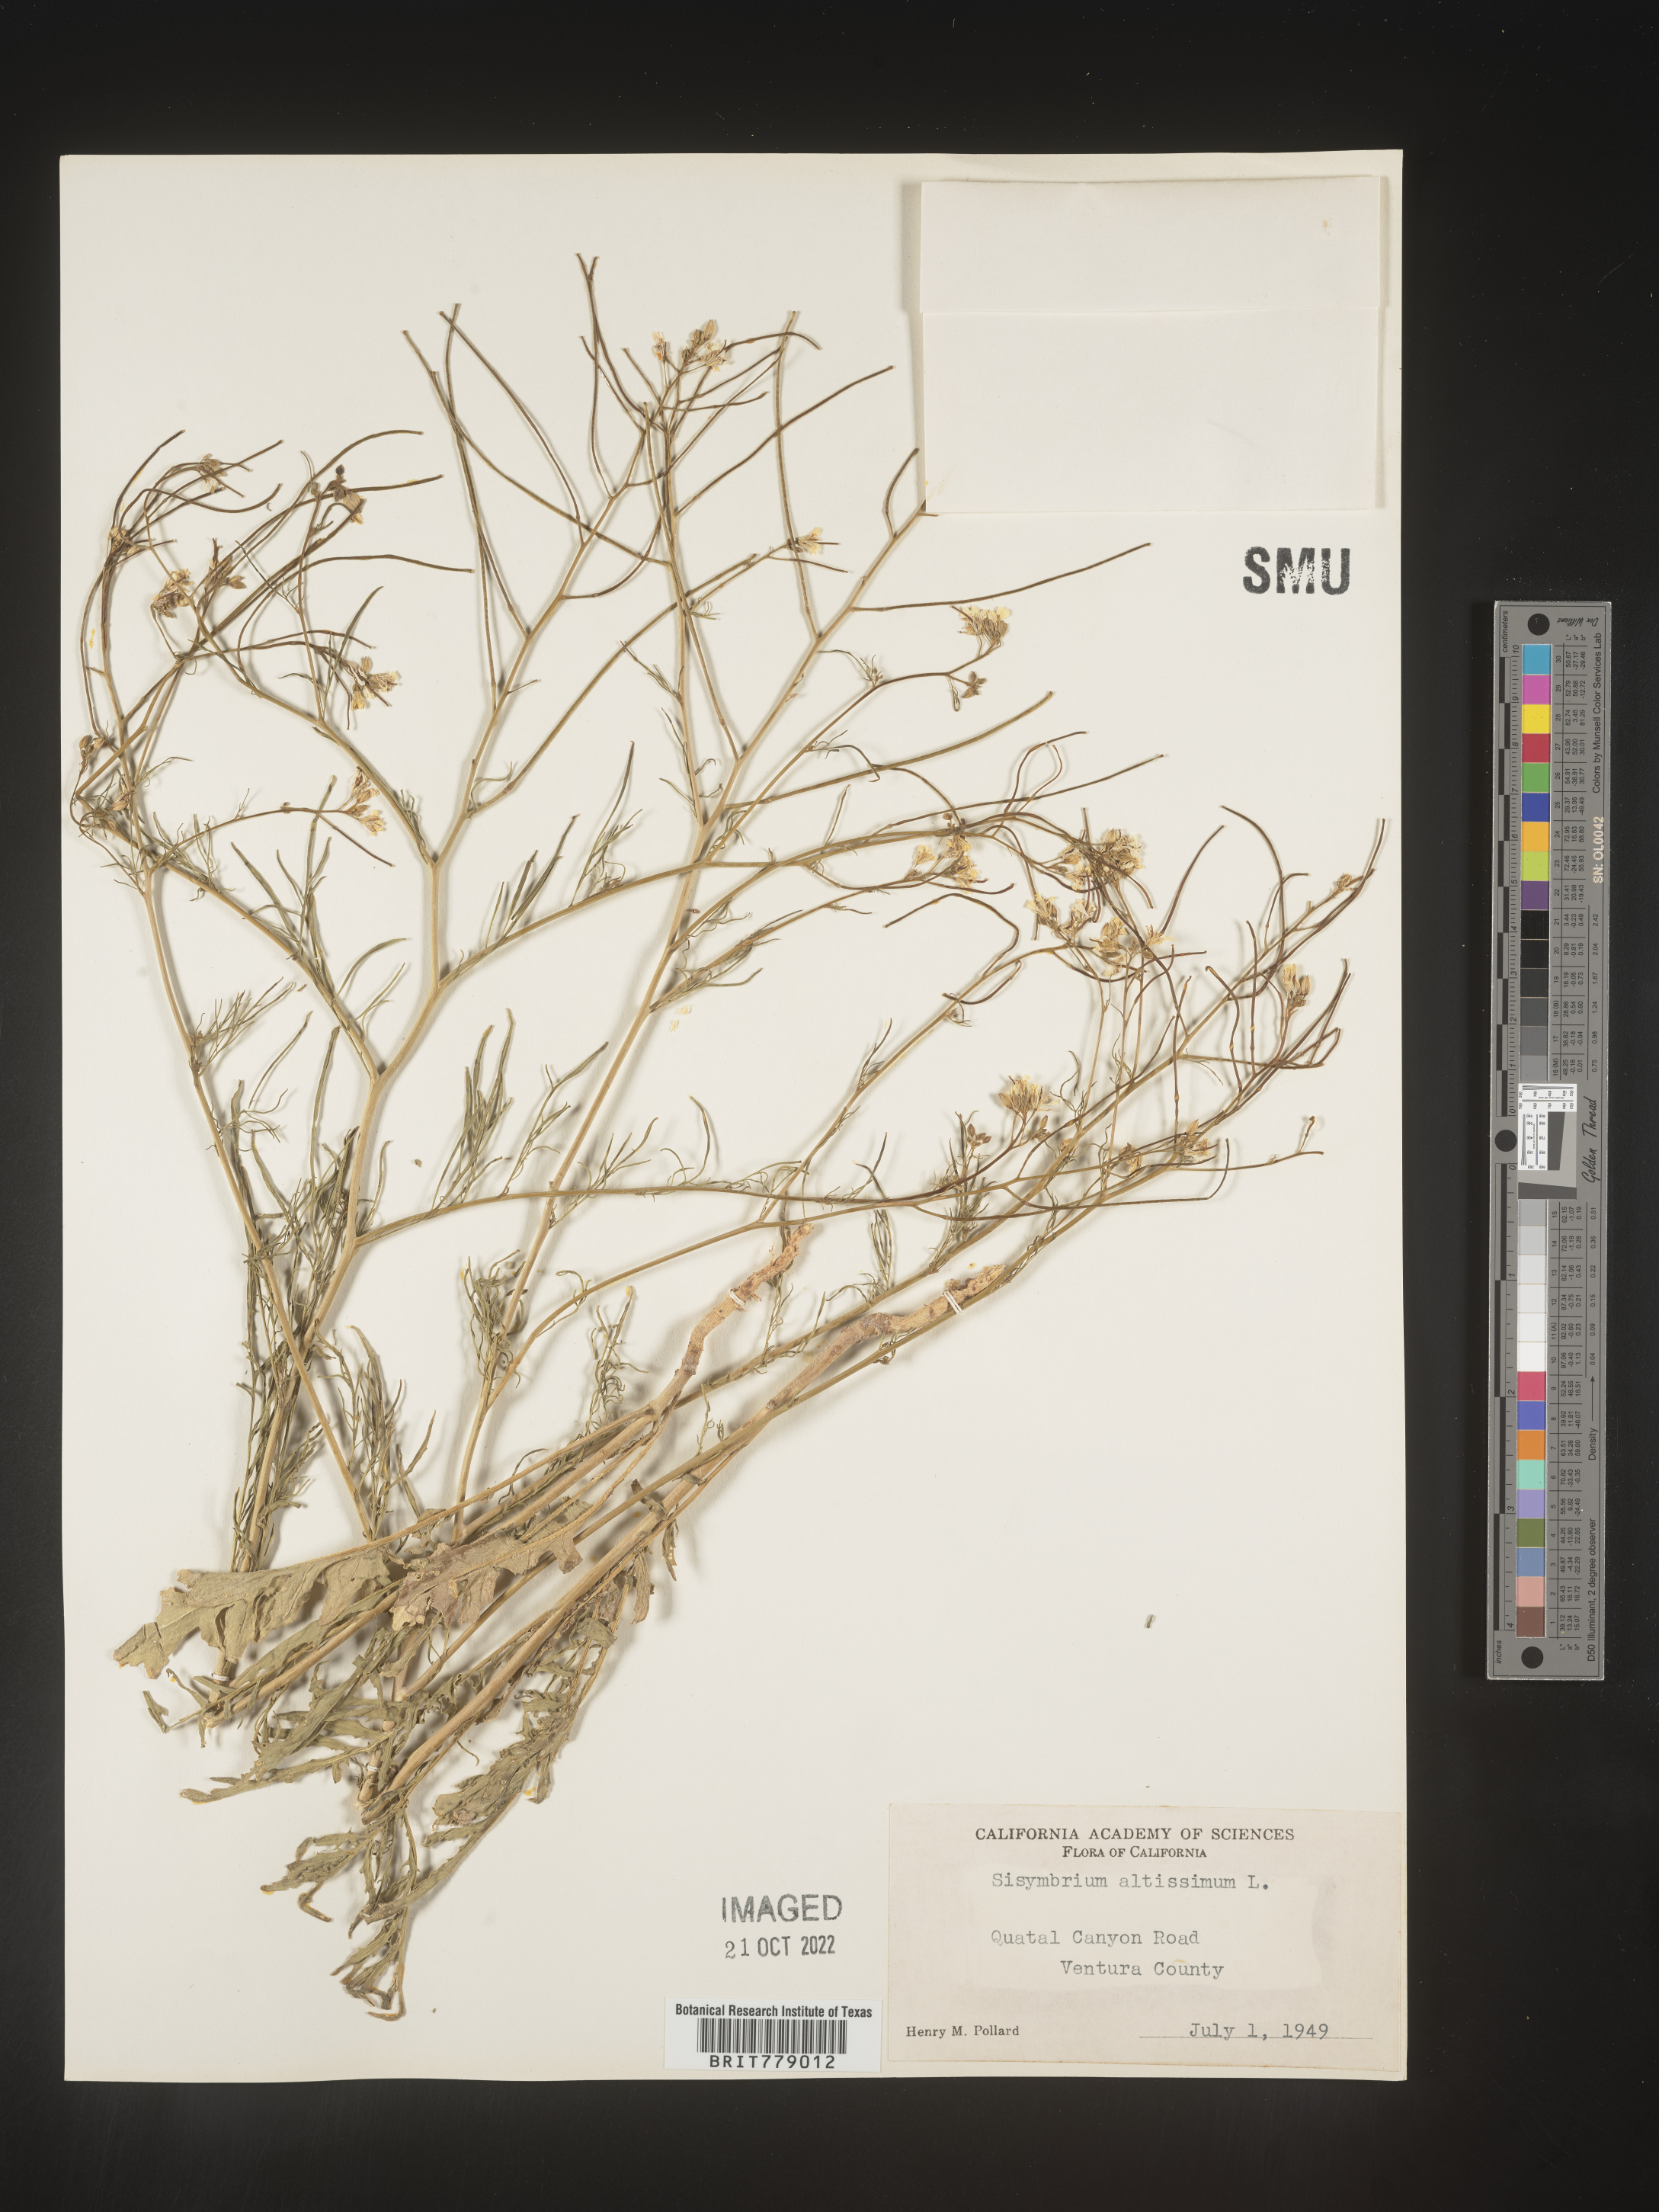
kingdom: Plantae
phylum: Tracheophyta
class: Magnoliopsida
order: Brassicales
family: Brassicaceae
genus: Sisymbrium
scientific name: Sisymbrium altissimum
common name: Tall rocket
